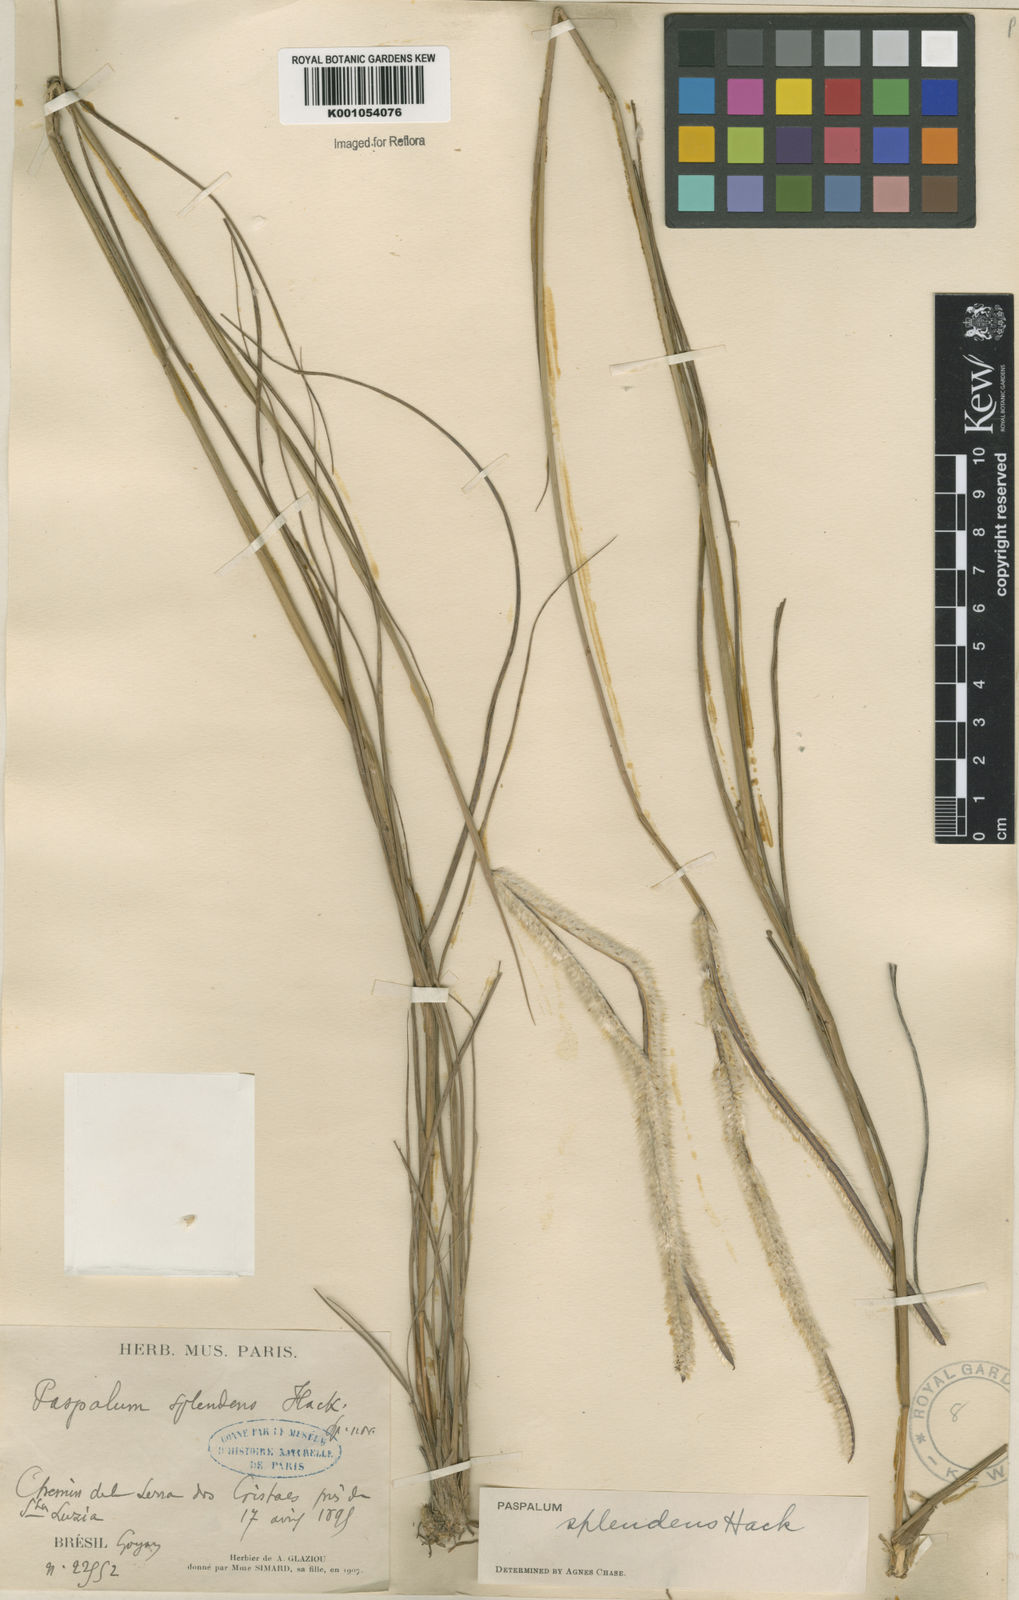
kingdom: Plantae
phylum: Tracheophyta
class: Liliopsida
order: Poales
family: Poaceae
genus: Paspalum
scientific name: Paspalum eucomum
